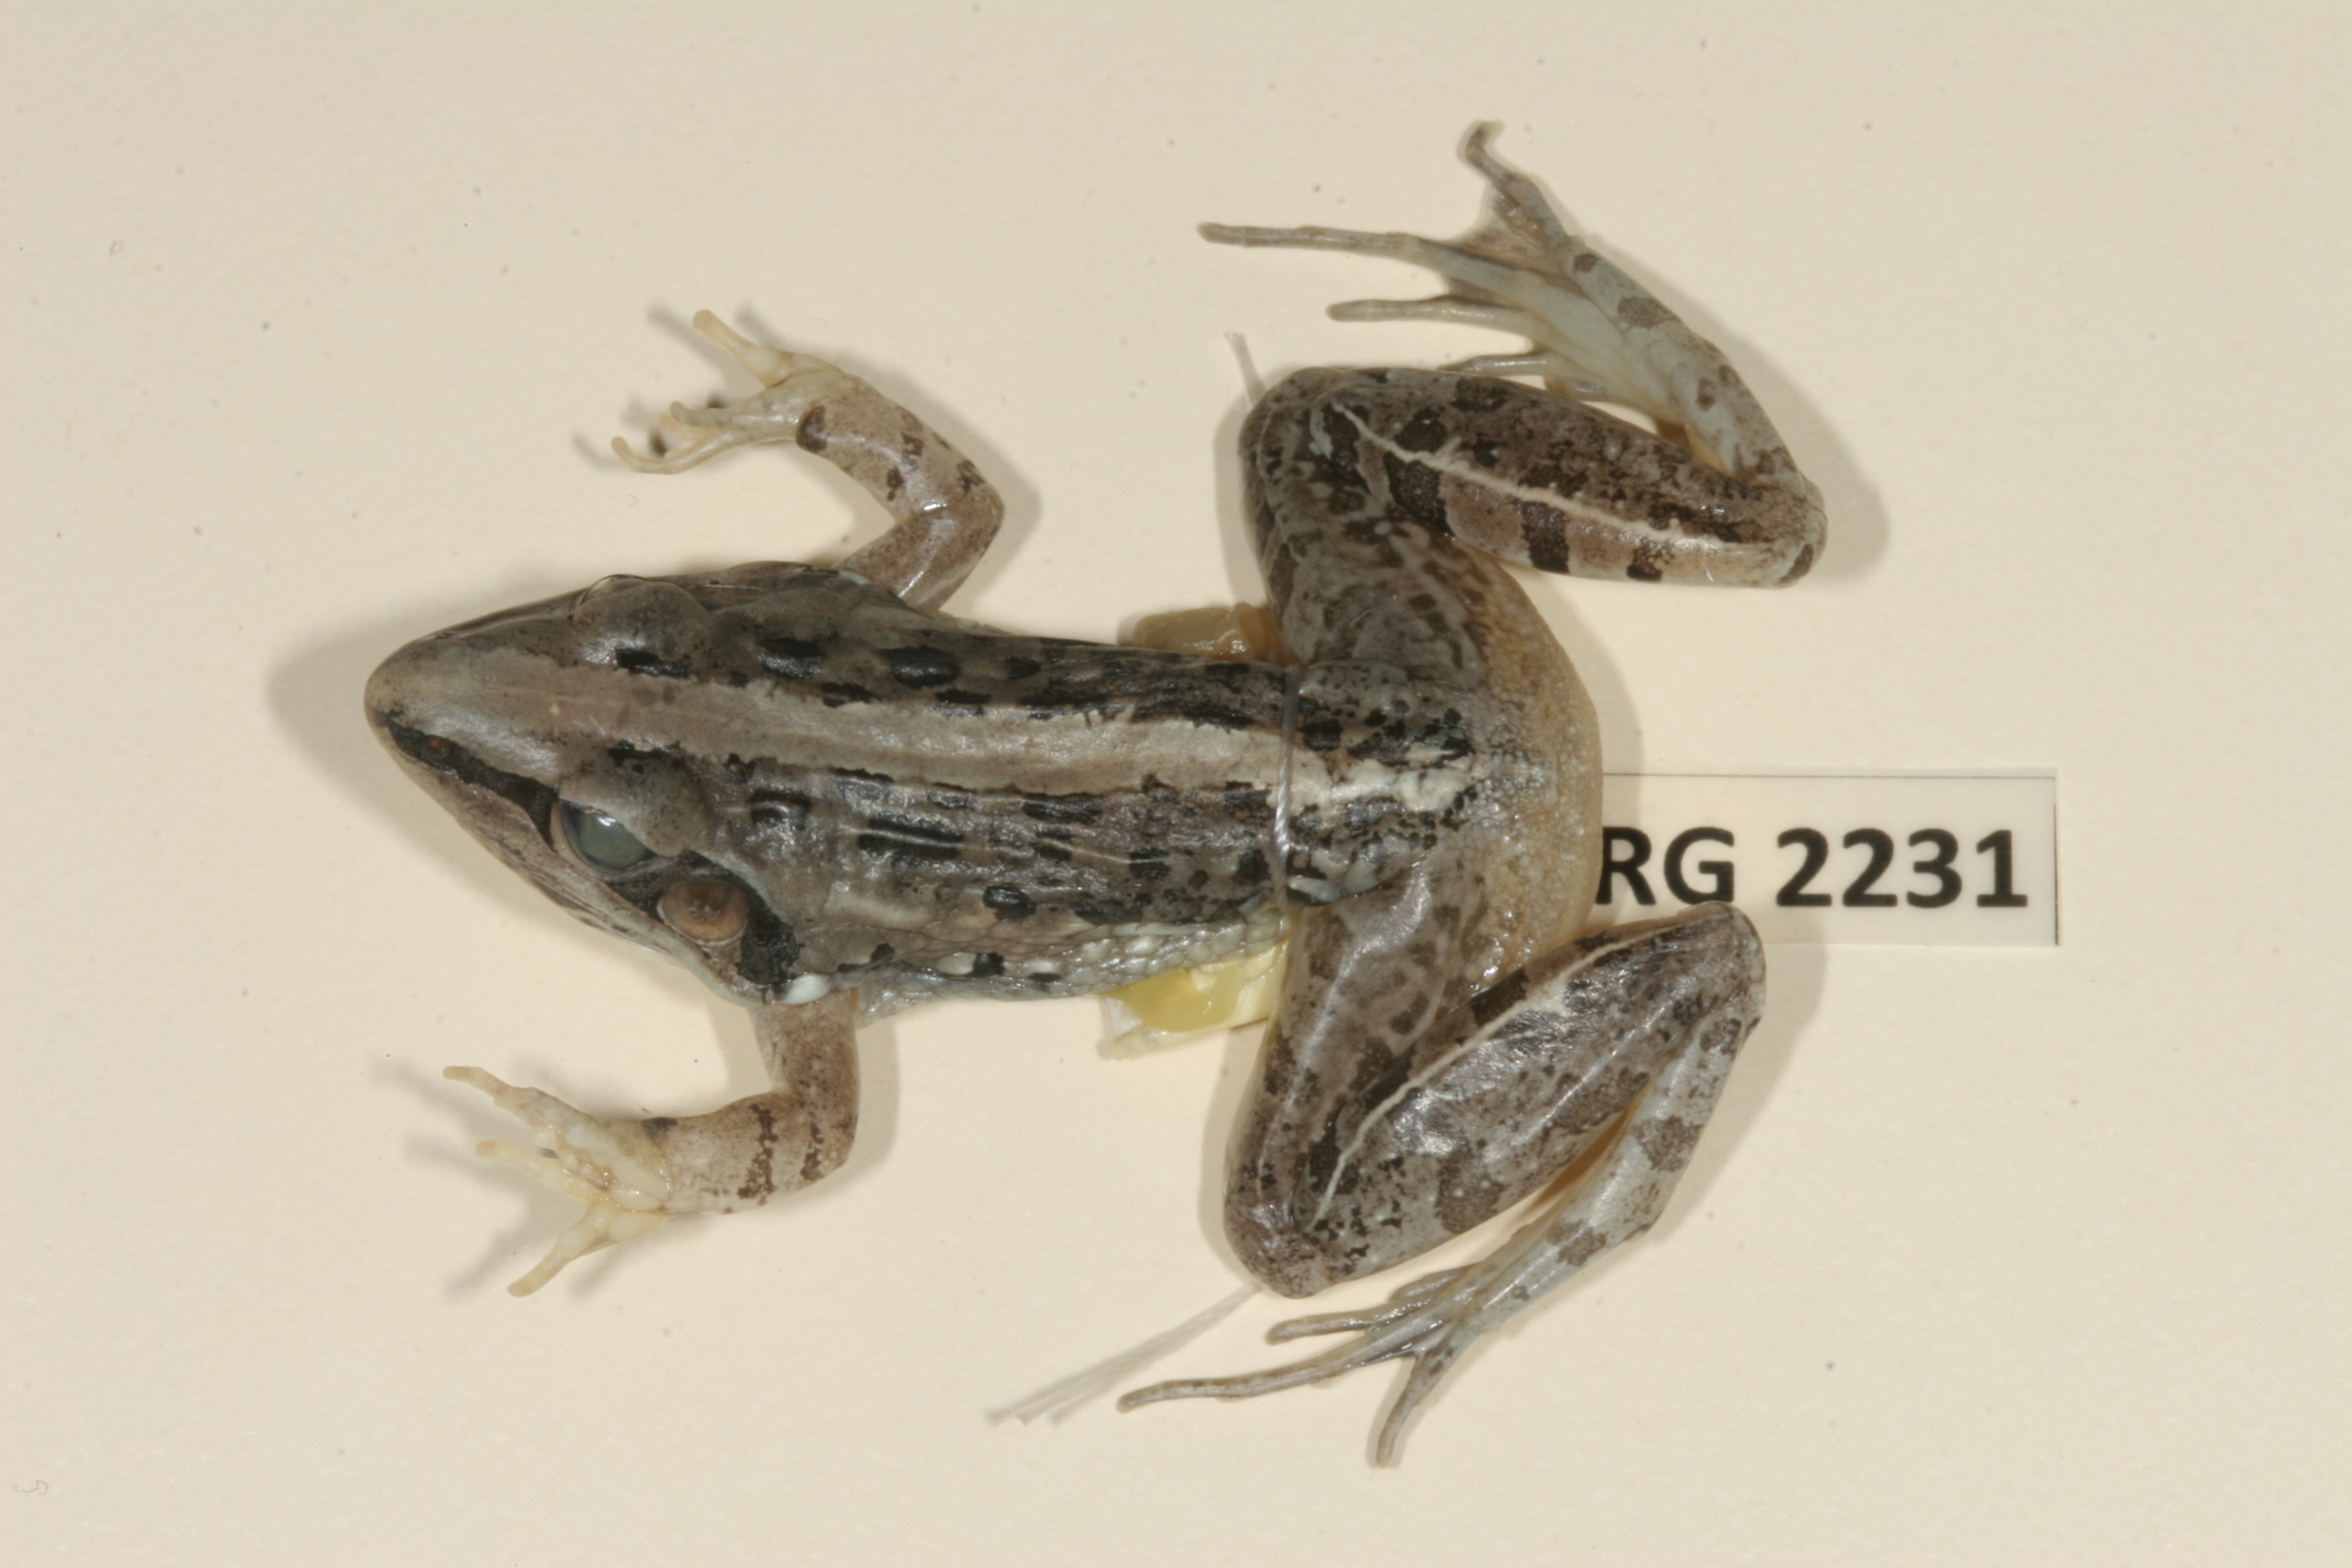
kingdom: Animalia
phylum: Chordata
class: Amphibia
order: Anura
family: Ptychadenidae
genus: Ptychadena
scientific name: Ptychadena mossambica
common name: Mozambique ridged frog
